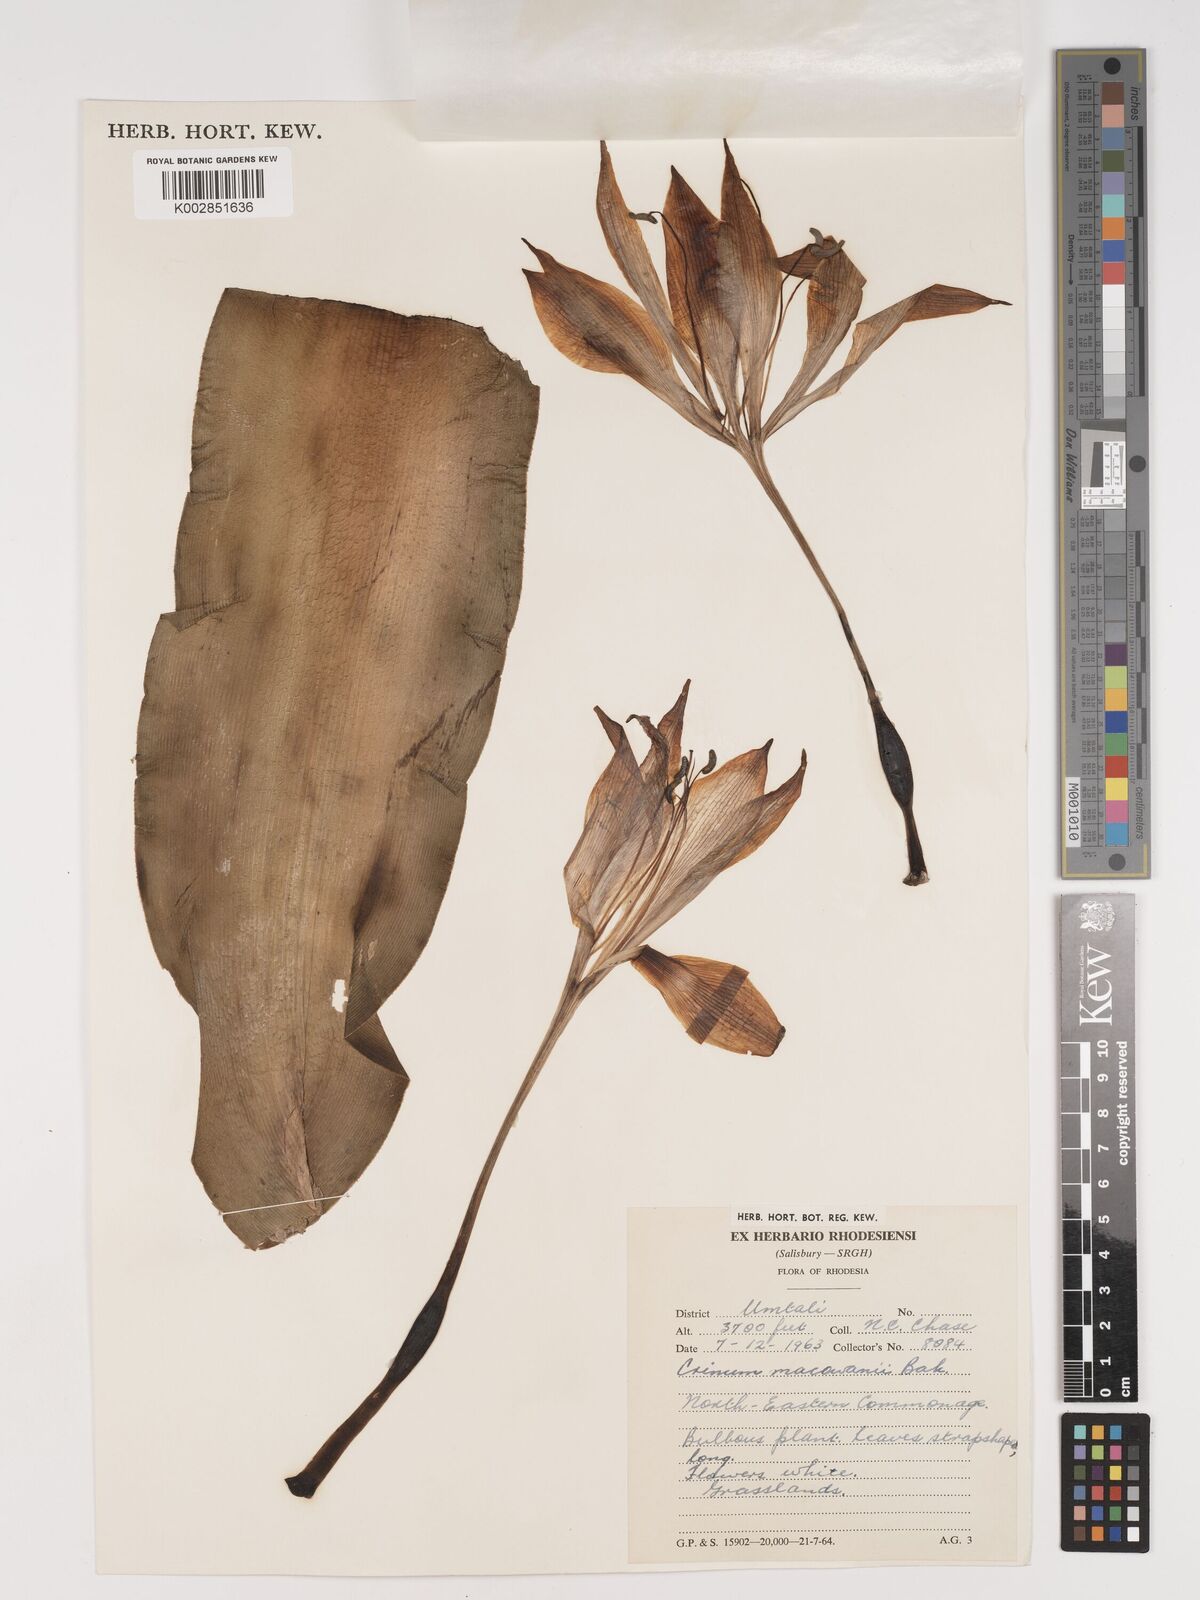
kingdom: Plantae
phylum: Tracheophyta
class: Liliopsida
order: Asparagales
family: Amaryllidaceae
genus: Crinum
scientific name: Crinum macowanii
